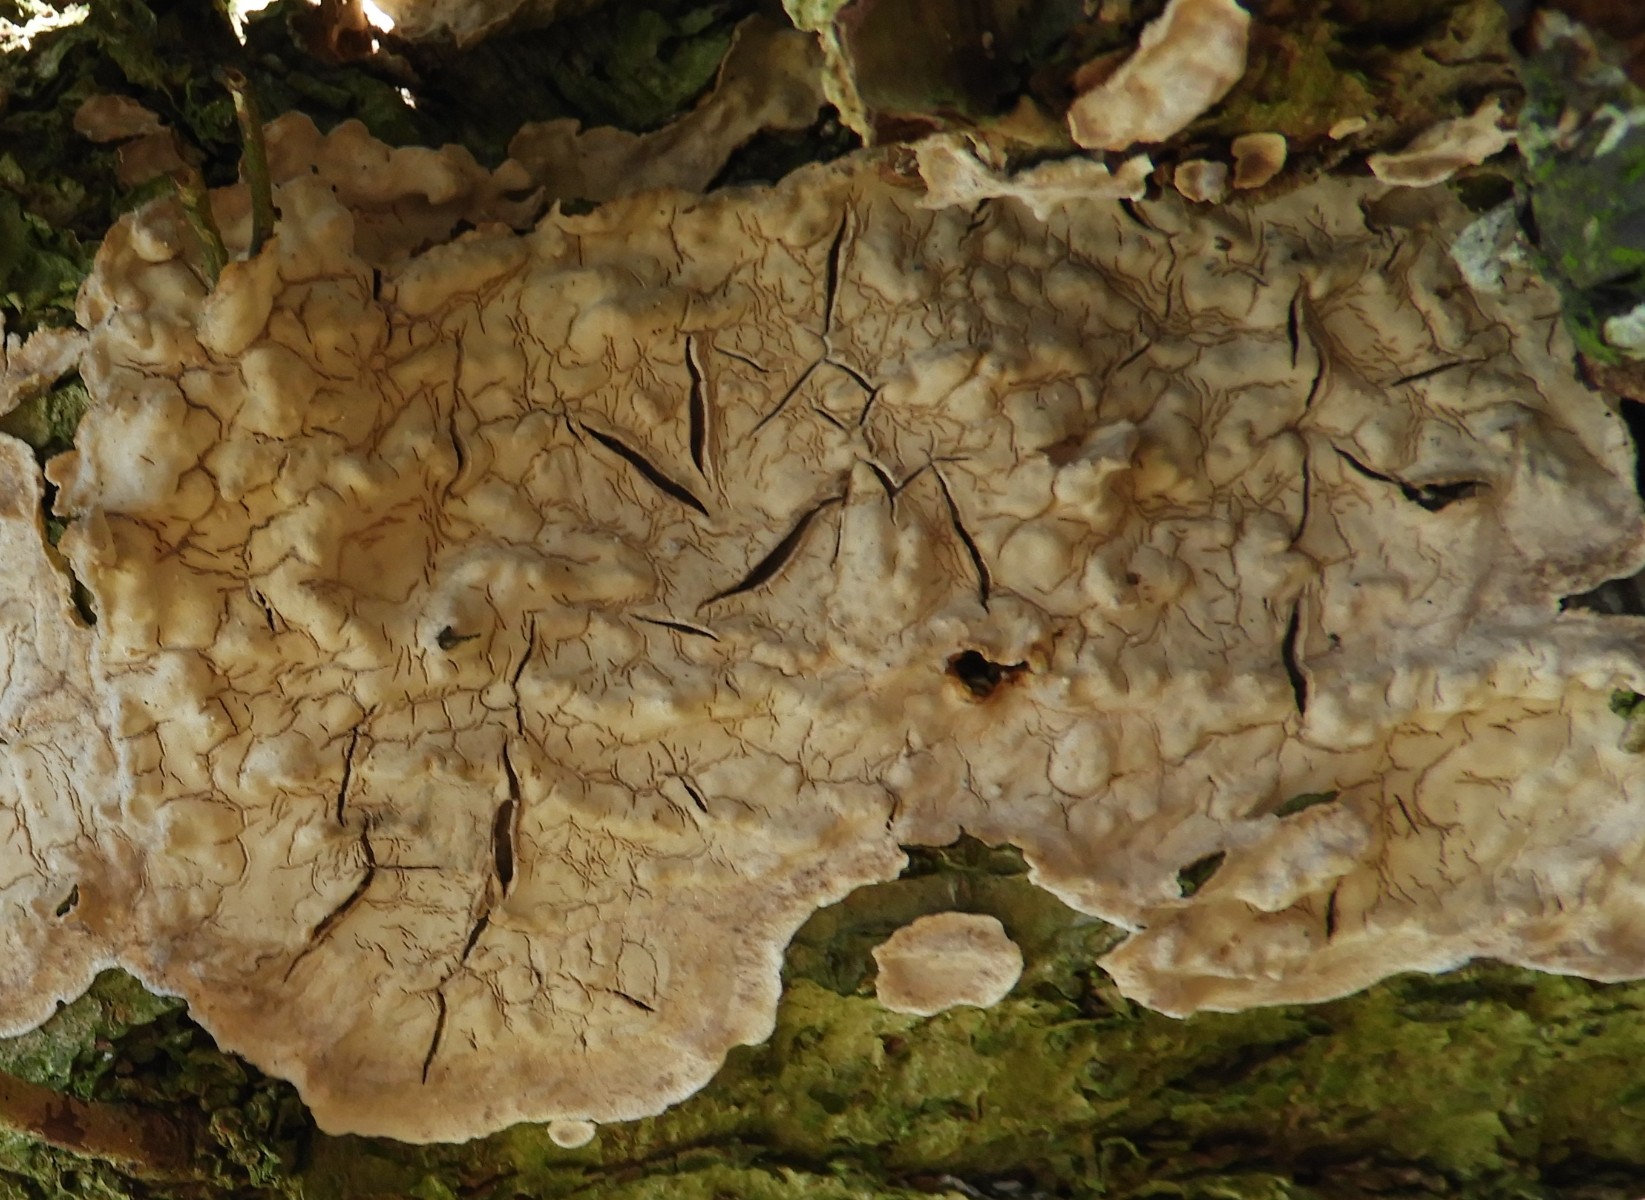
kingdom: Fungi
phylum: Basidiomycota
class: Agaricomycetes
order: Agaricales
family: Physalacriaceae
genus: Cylindrobasidium
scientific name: Cylindrobasidium evolvens
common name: sprækkehinde
